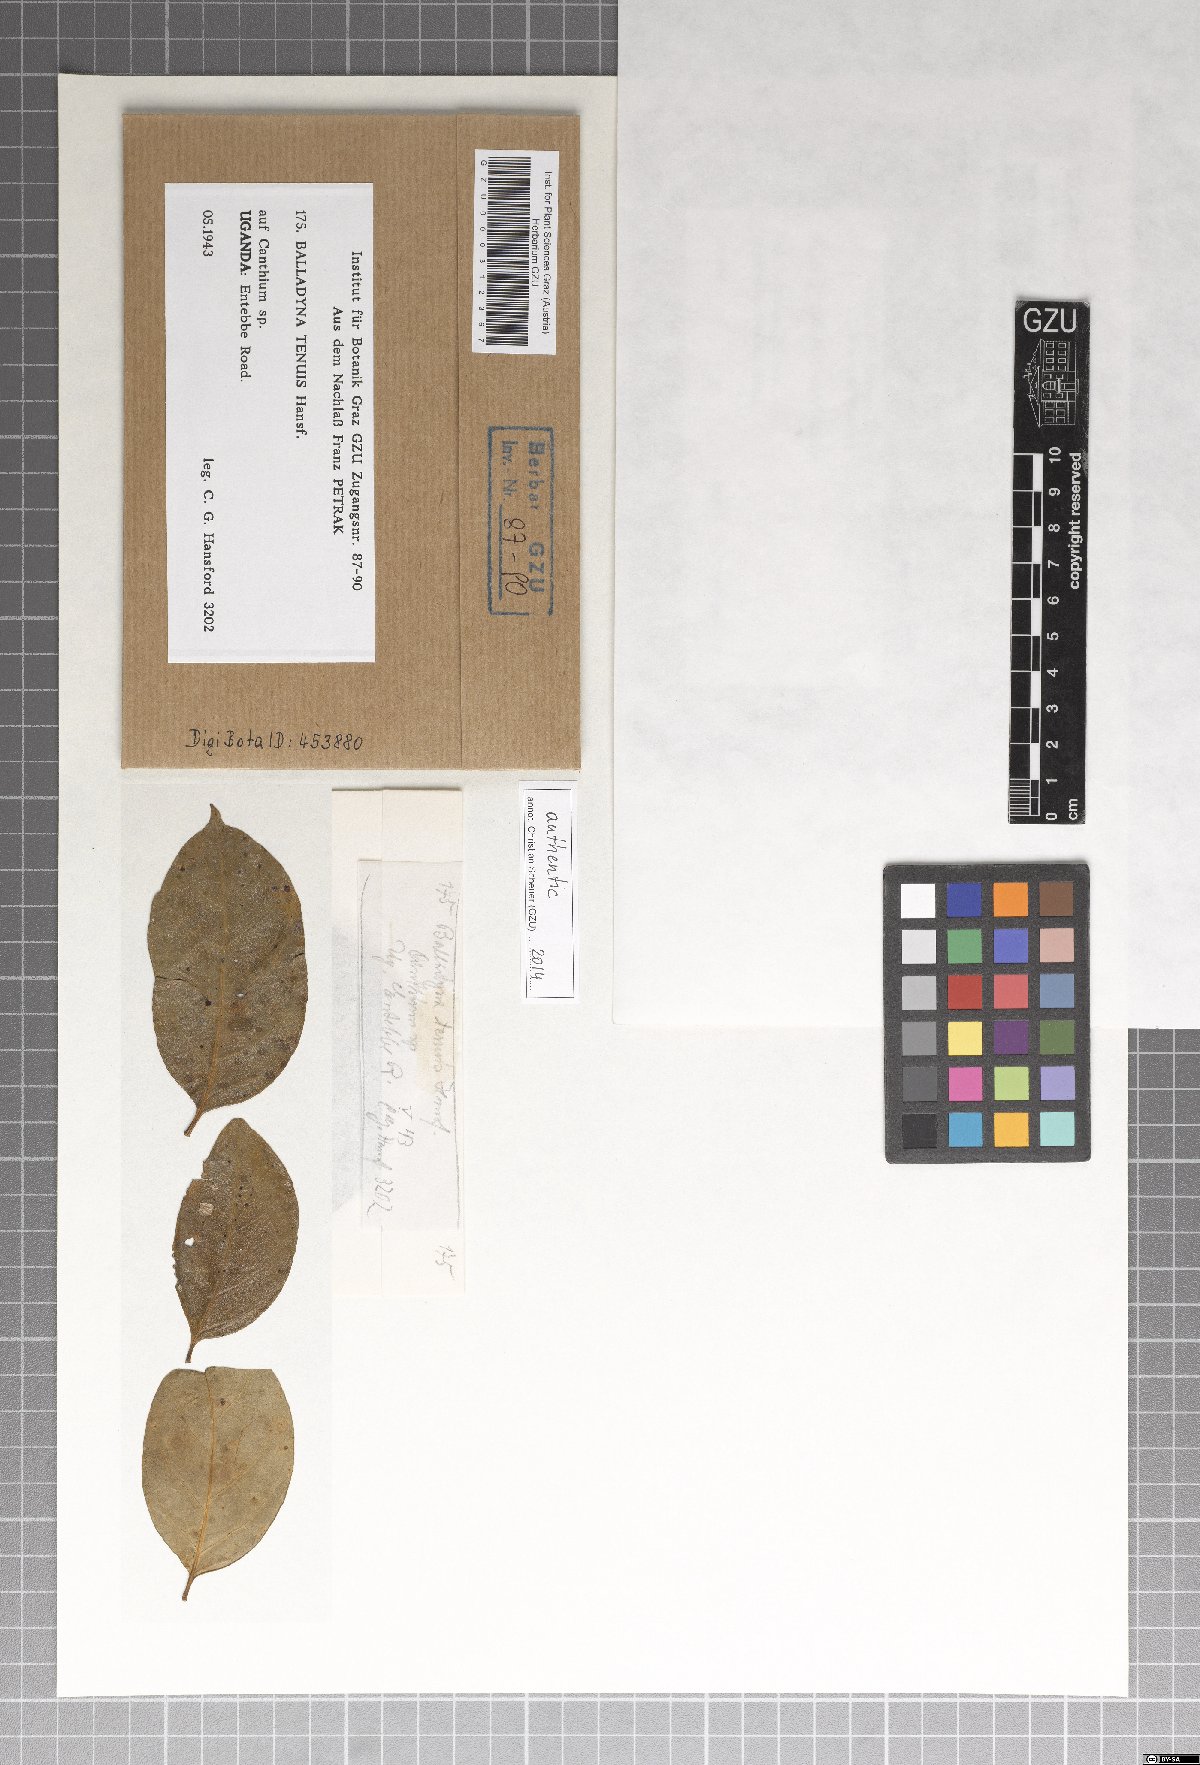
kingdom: Fungi
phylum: Ascomycota
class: Dothideomycetes
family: Balladynaceae
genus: Balladyna
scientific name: Balladyna tenuis
